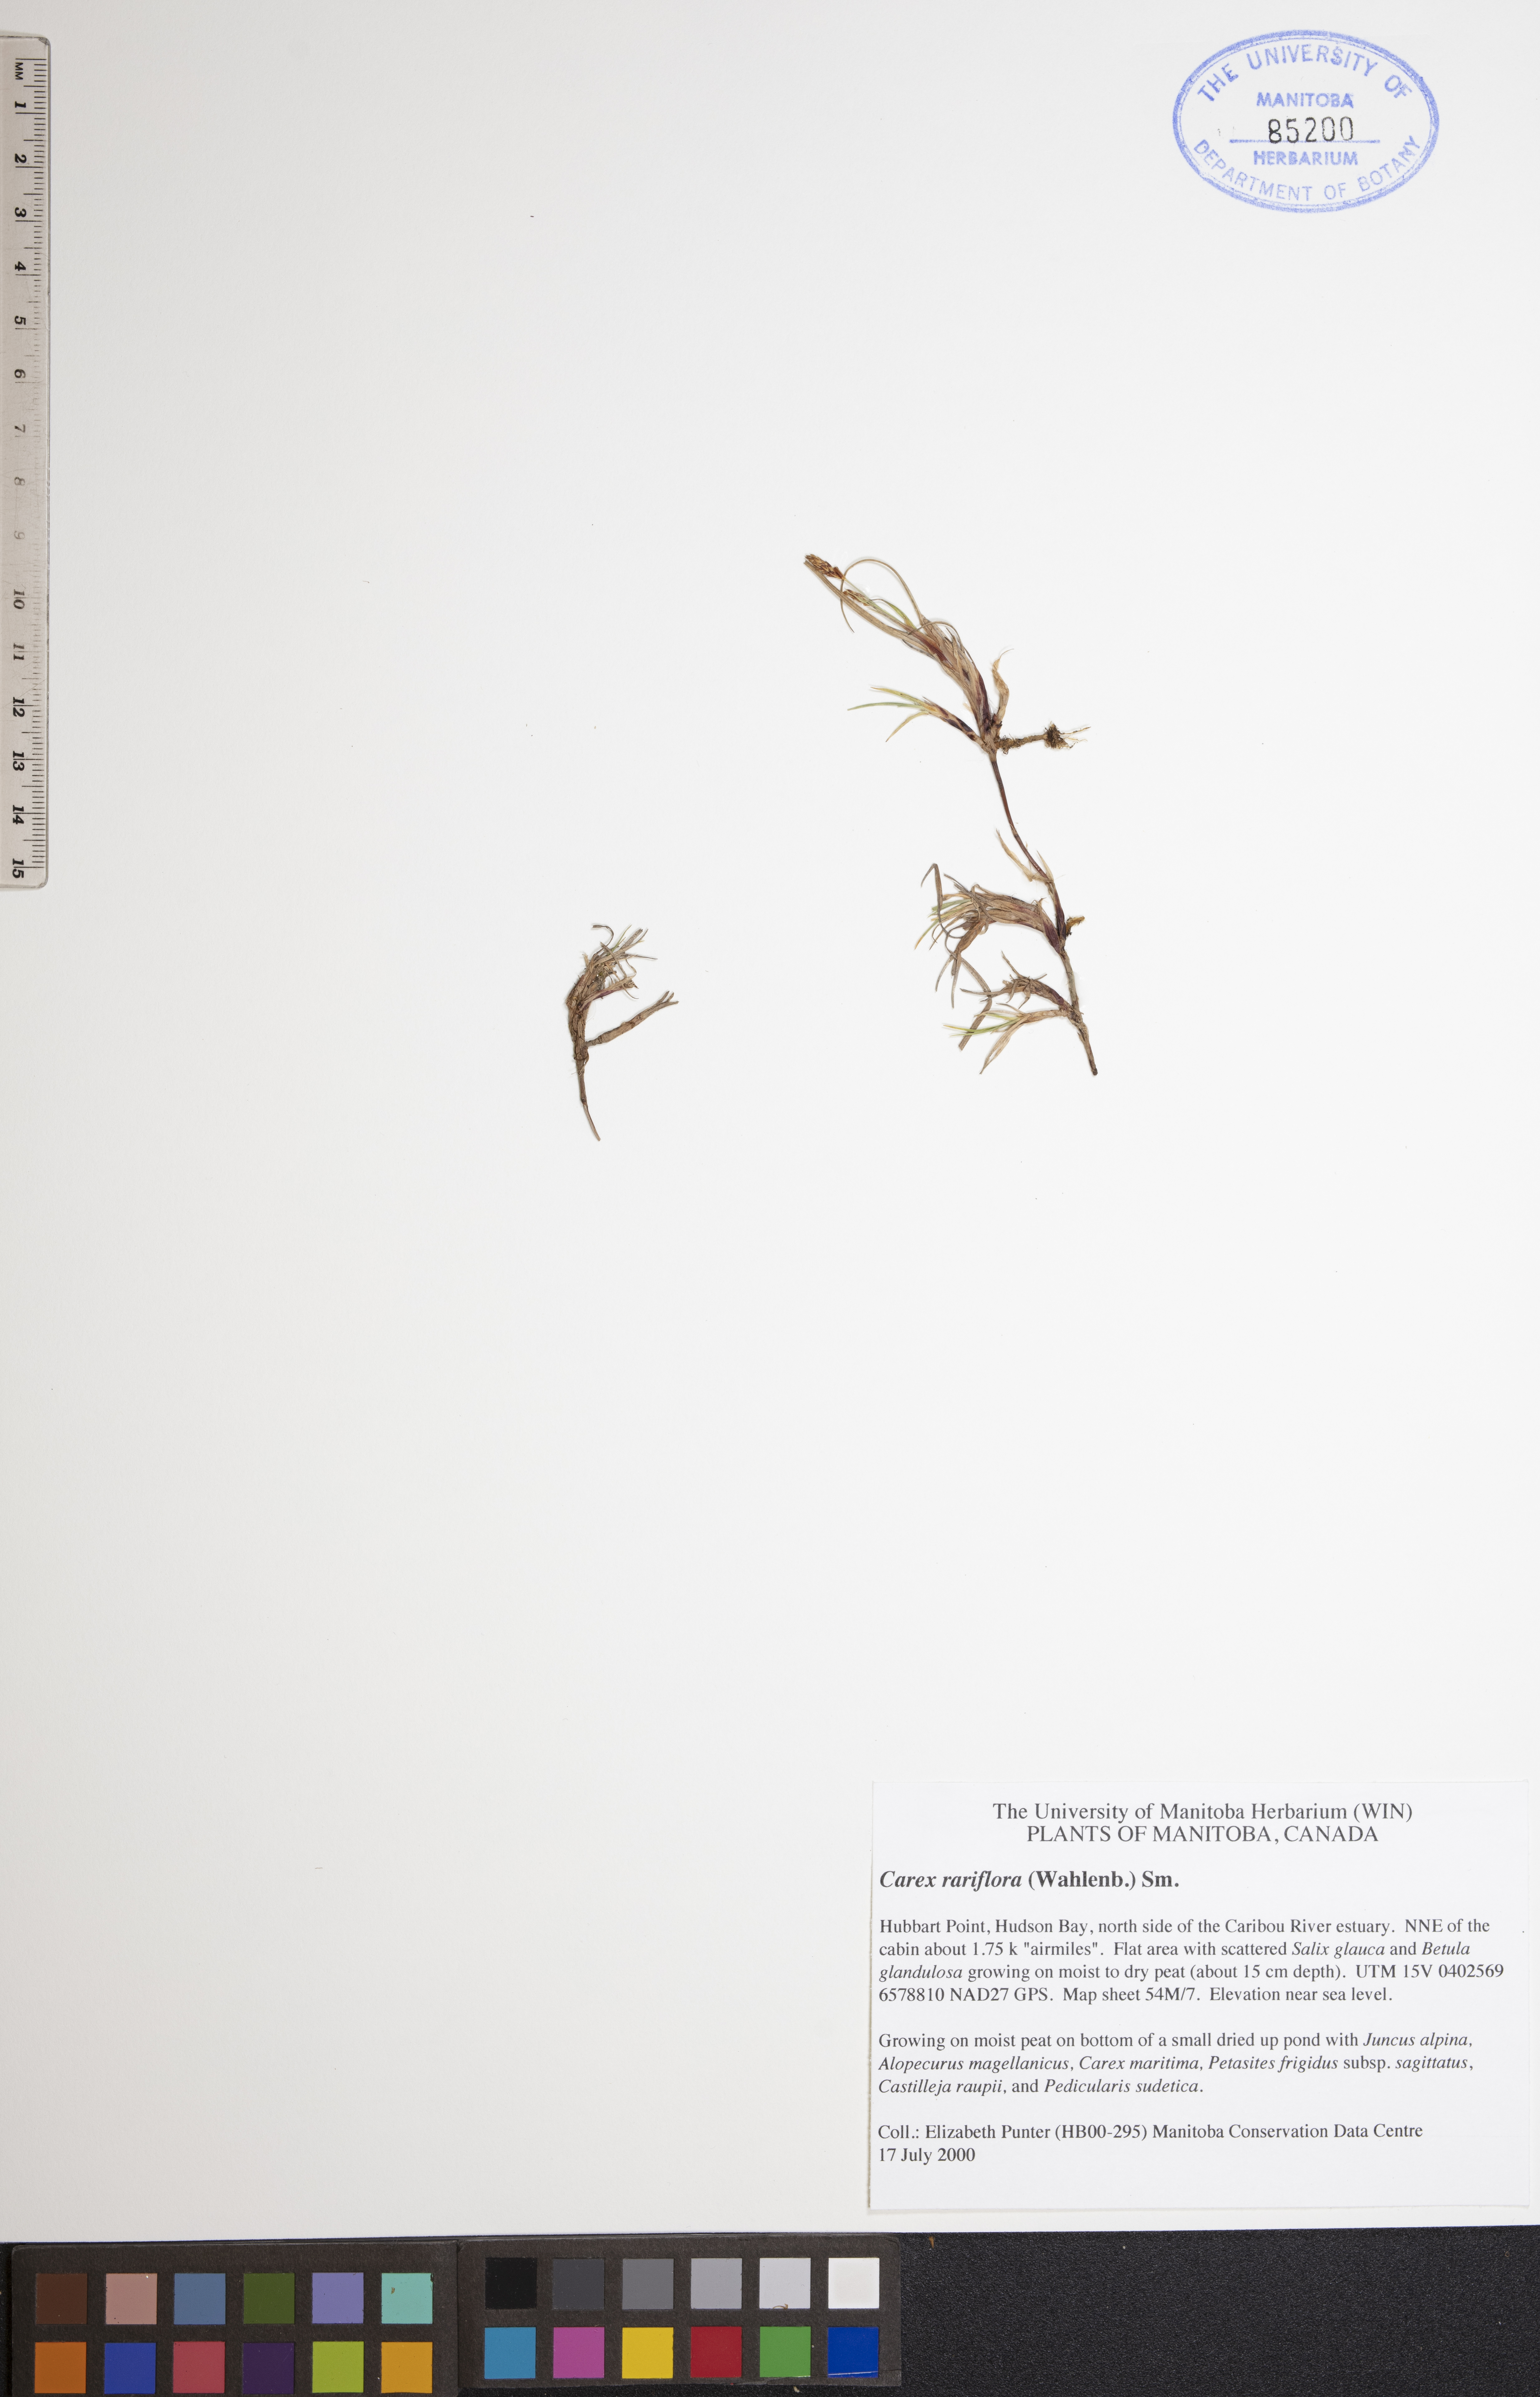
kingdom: Plantae
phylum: Tracheophyta
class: Liliopsida
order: Poales
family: Cyperaceae
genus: Carex
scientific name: Carex rariflora
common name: Loose-flowered alpine sedge
